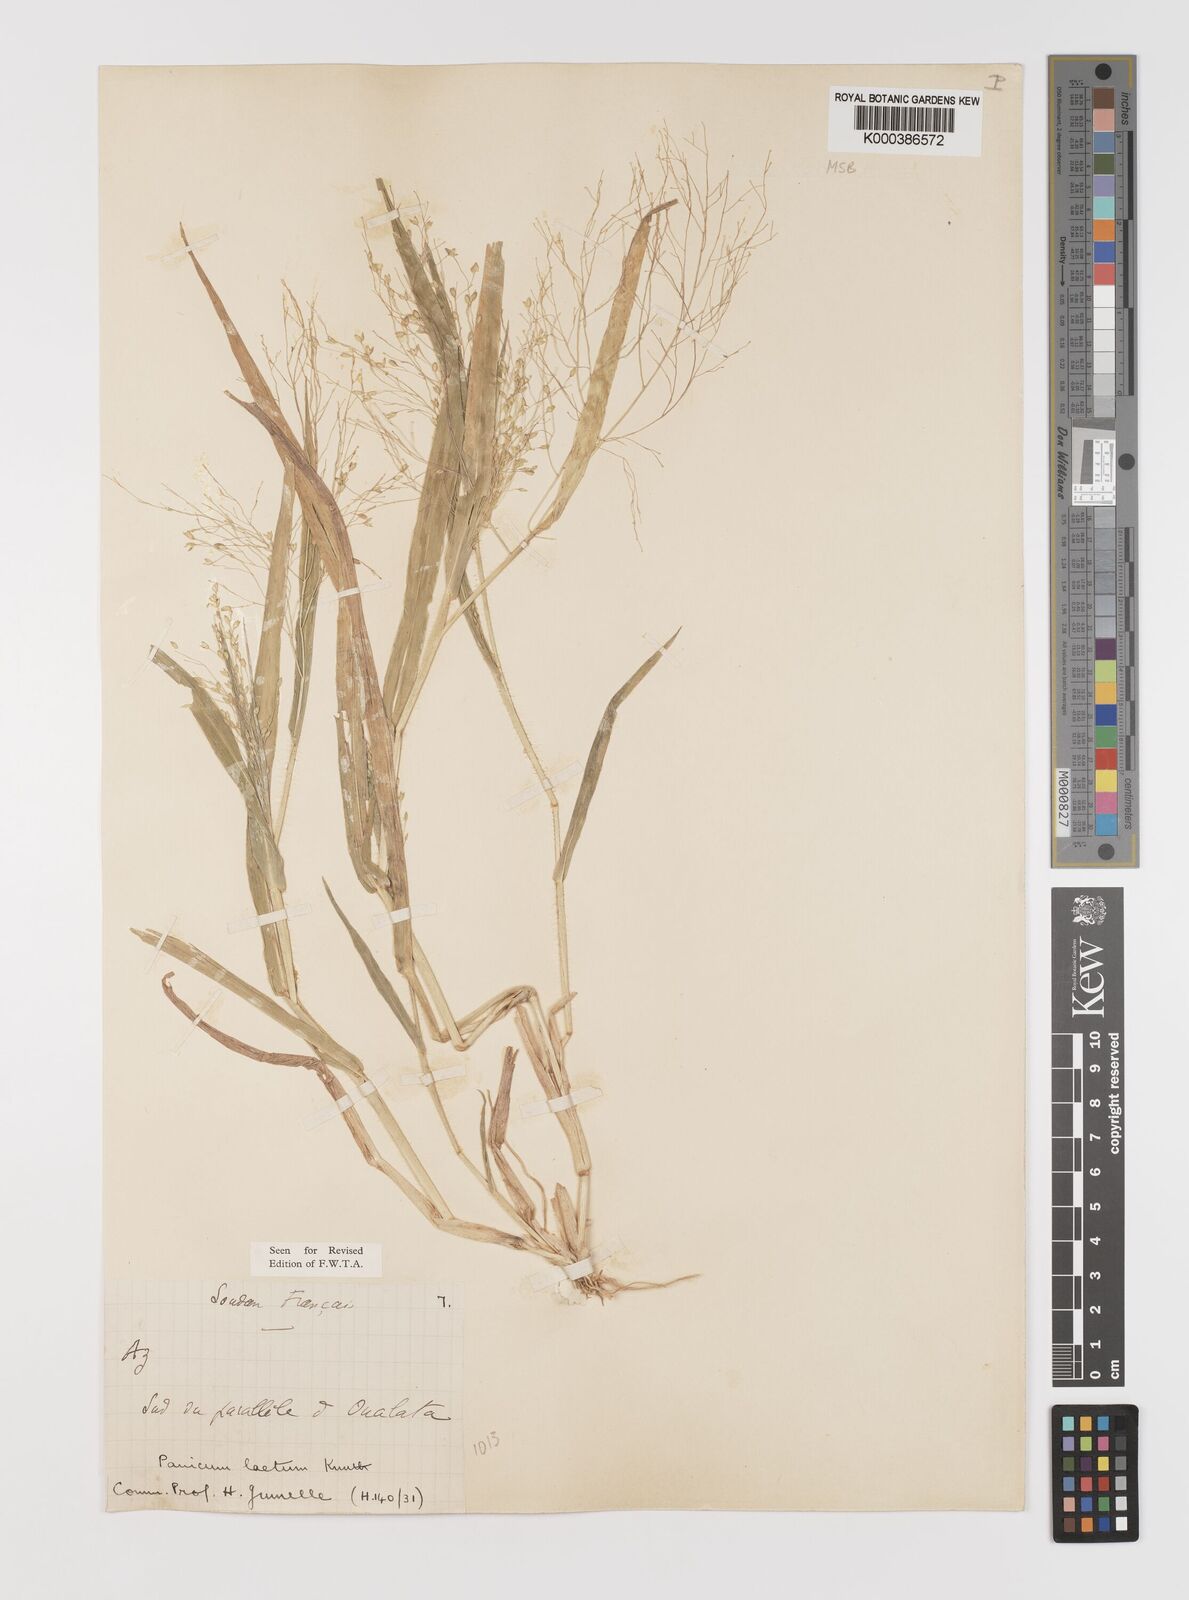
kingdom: Plantae
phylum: Tracheophyta
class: Liliopsida
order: Poales
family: Poaceae
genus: Panicum
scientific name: Panicum laetum
